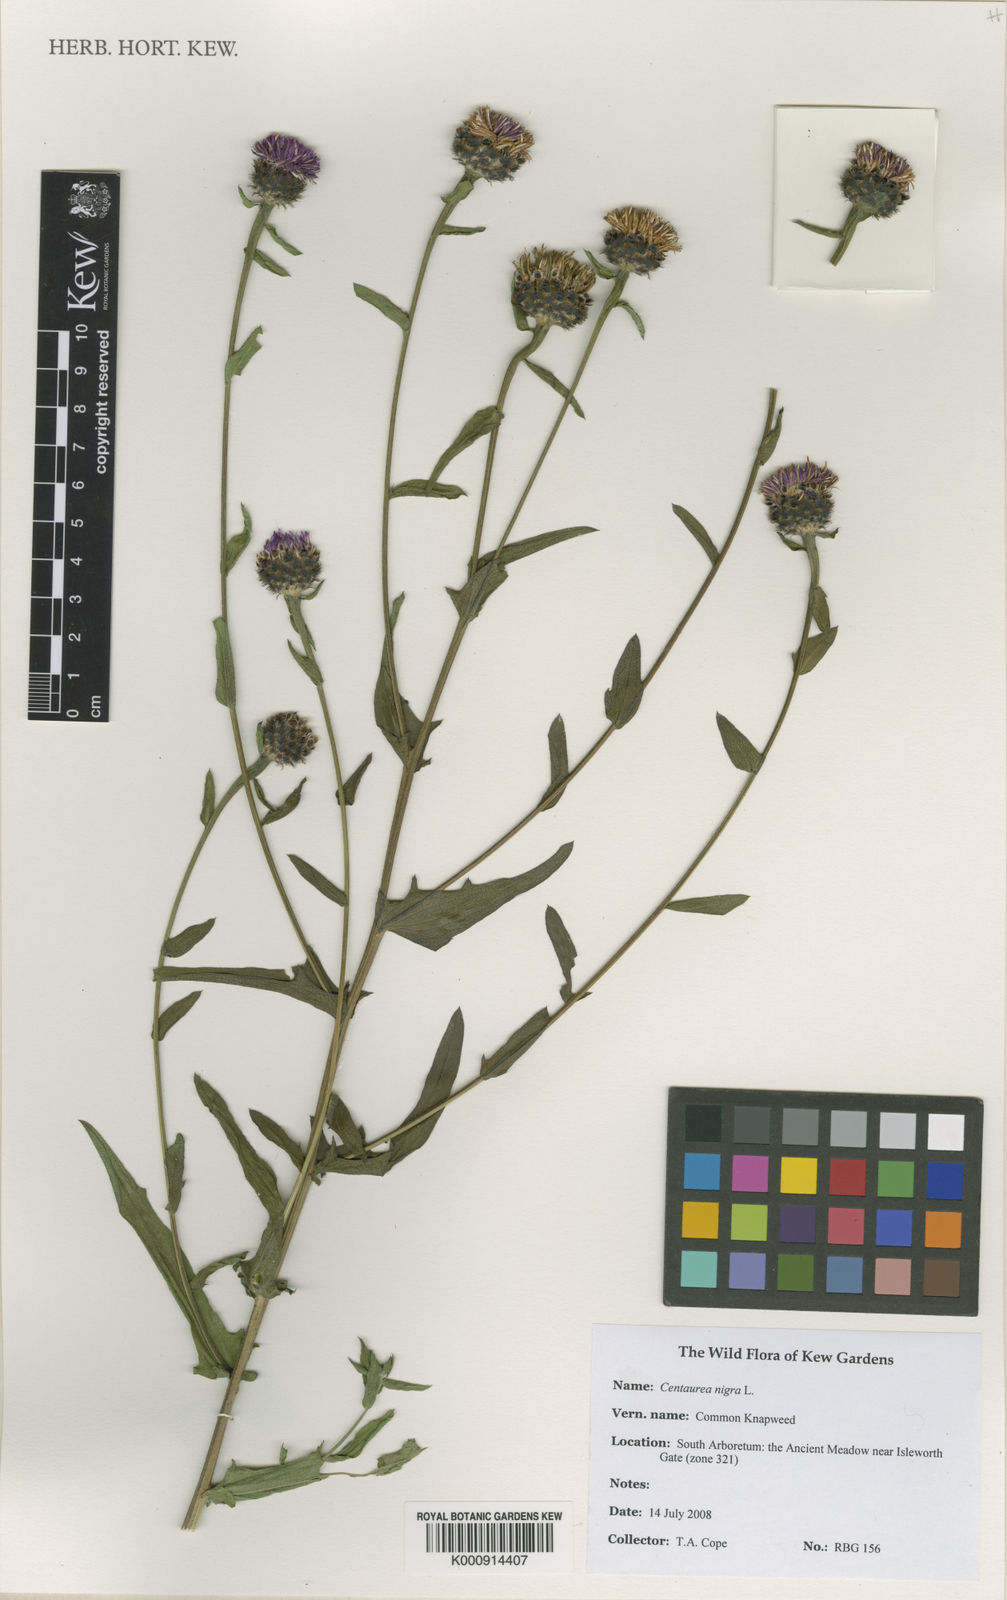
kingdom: Plantae
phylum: Tracheophyta
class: Magnoliopsida
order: Asterales
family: Asteraceae
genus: Centaurea
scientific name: Centaurea nigra
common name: Lesser knapweed
